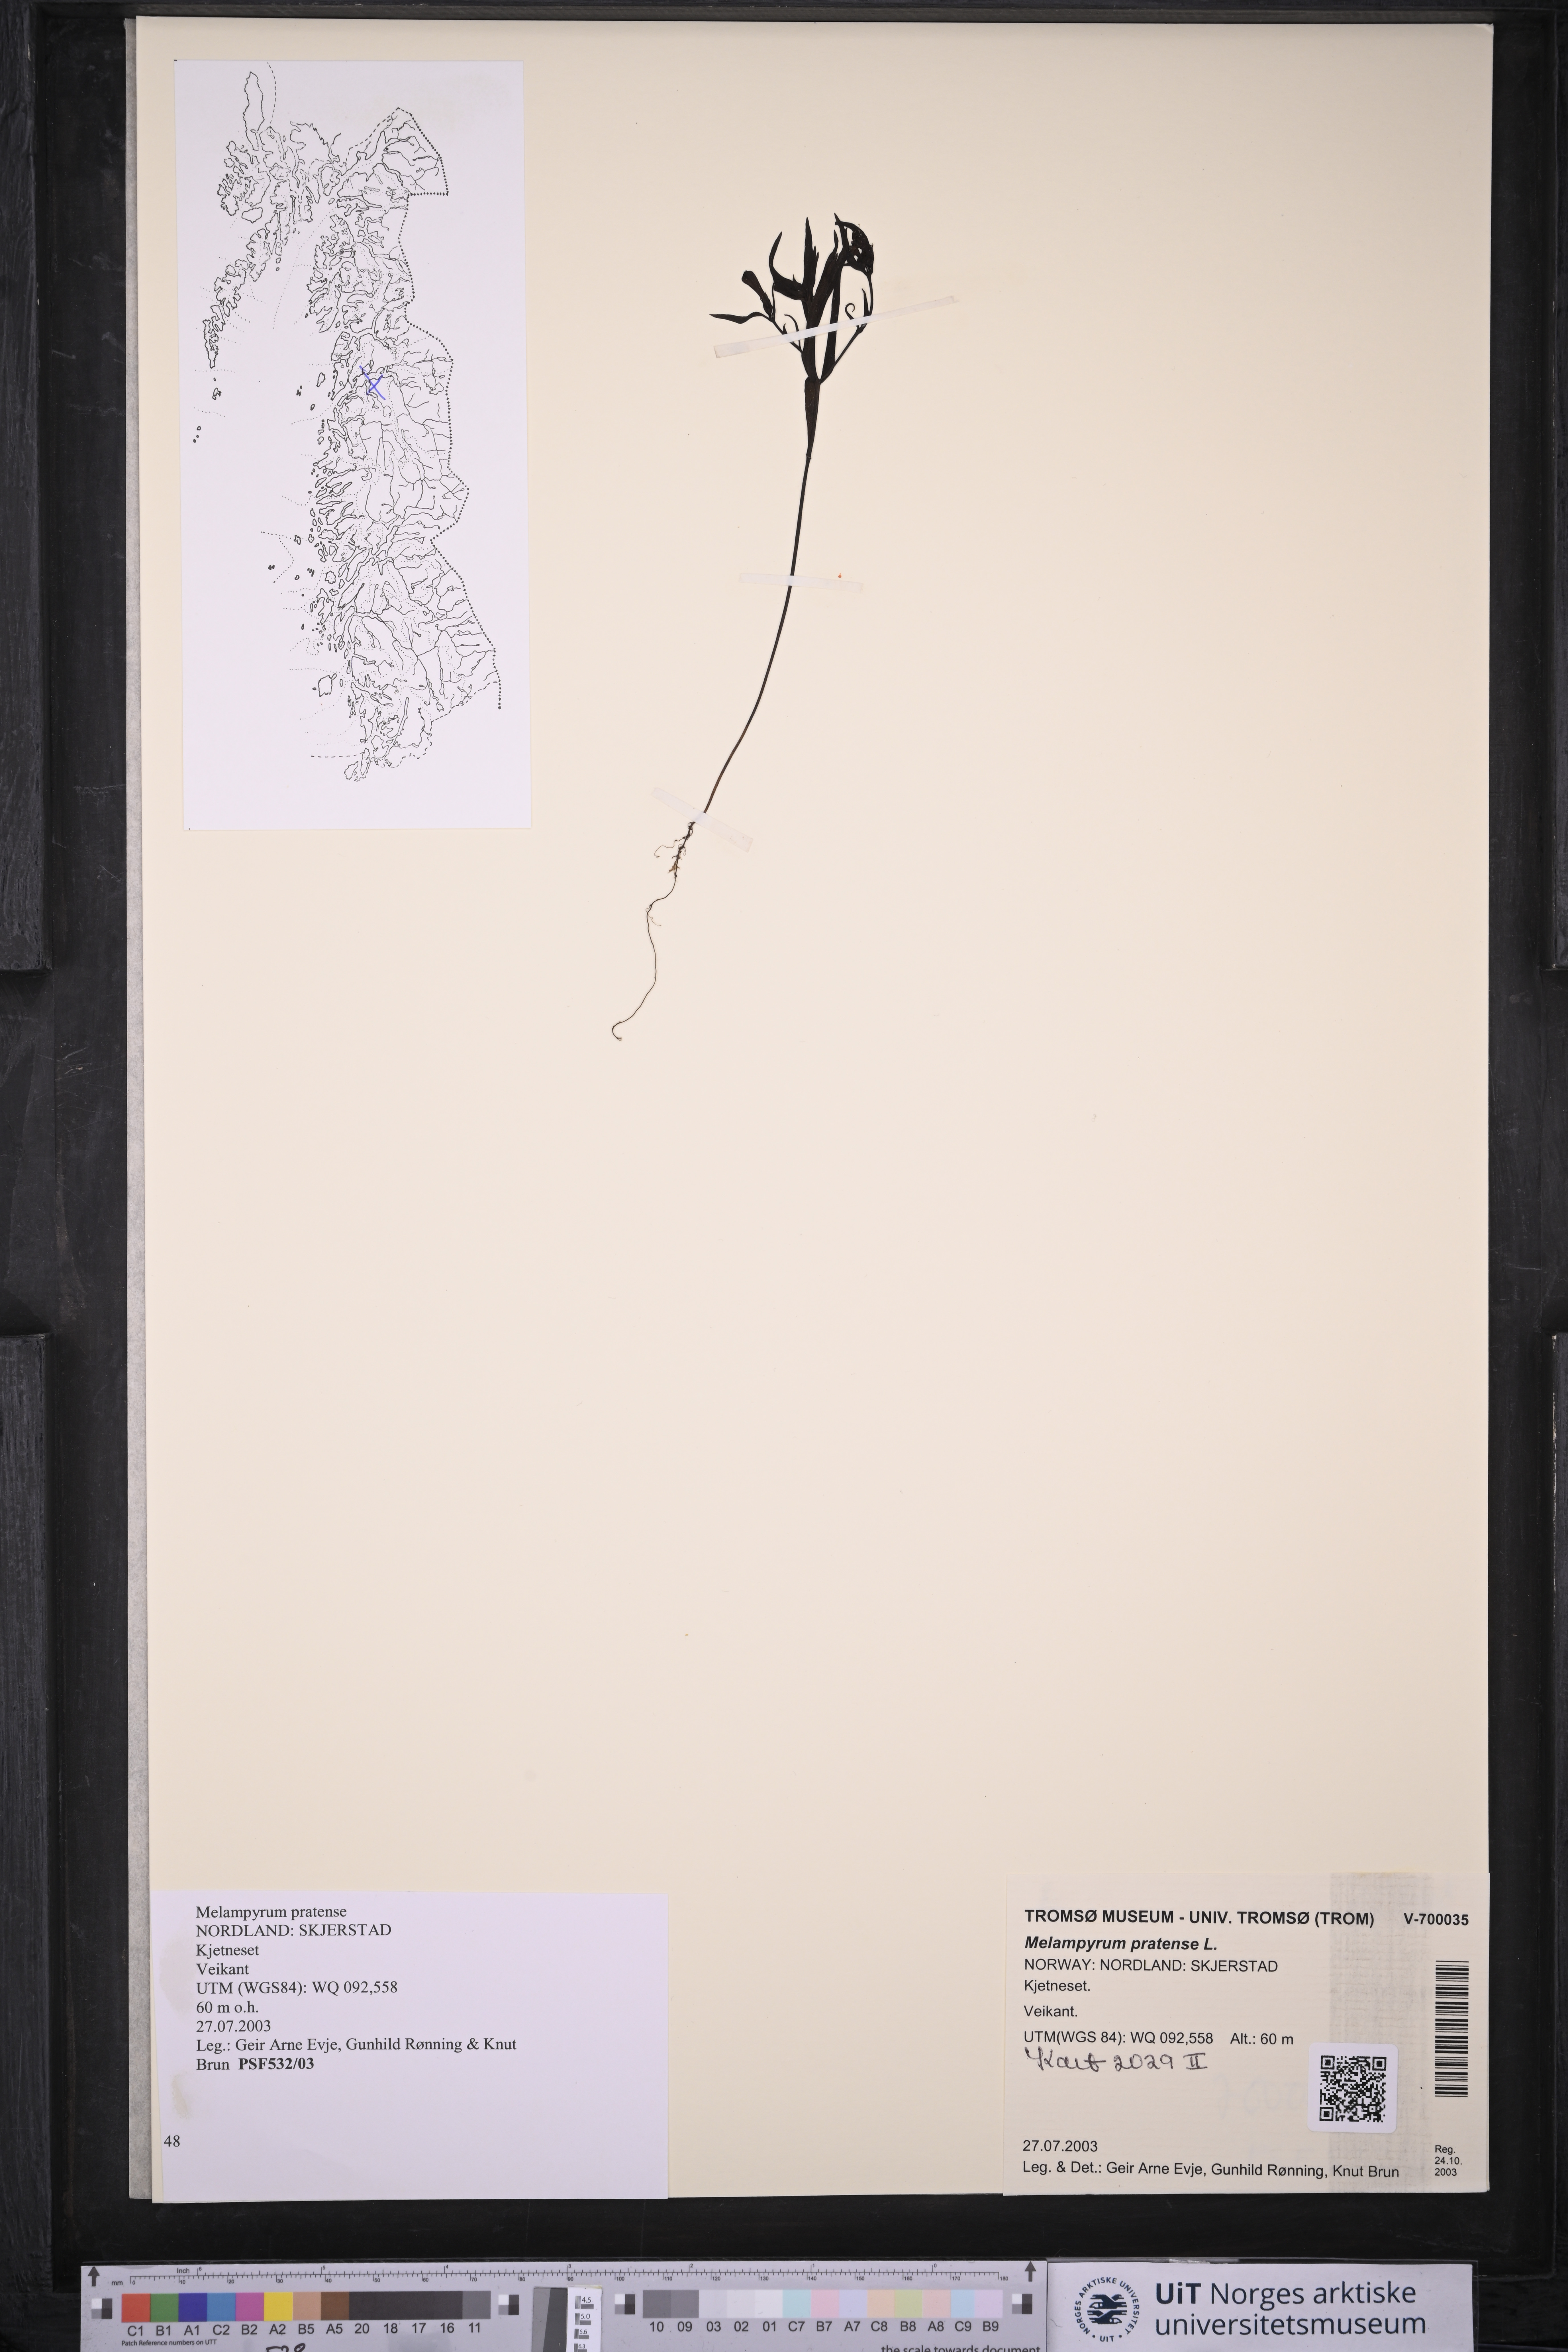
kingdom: Plantae
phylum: Tracheophyta
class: Magnoliopsida
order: Lamiales
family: Orobanchaceae
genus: Melampyrum
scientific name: Melampyrum pratense
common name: Common cow-wheat
